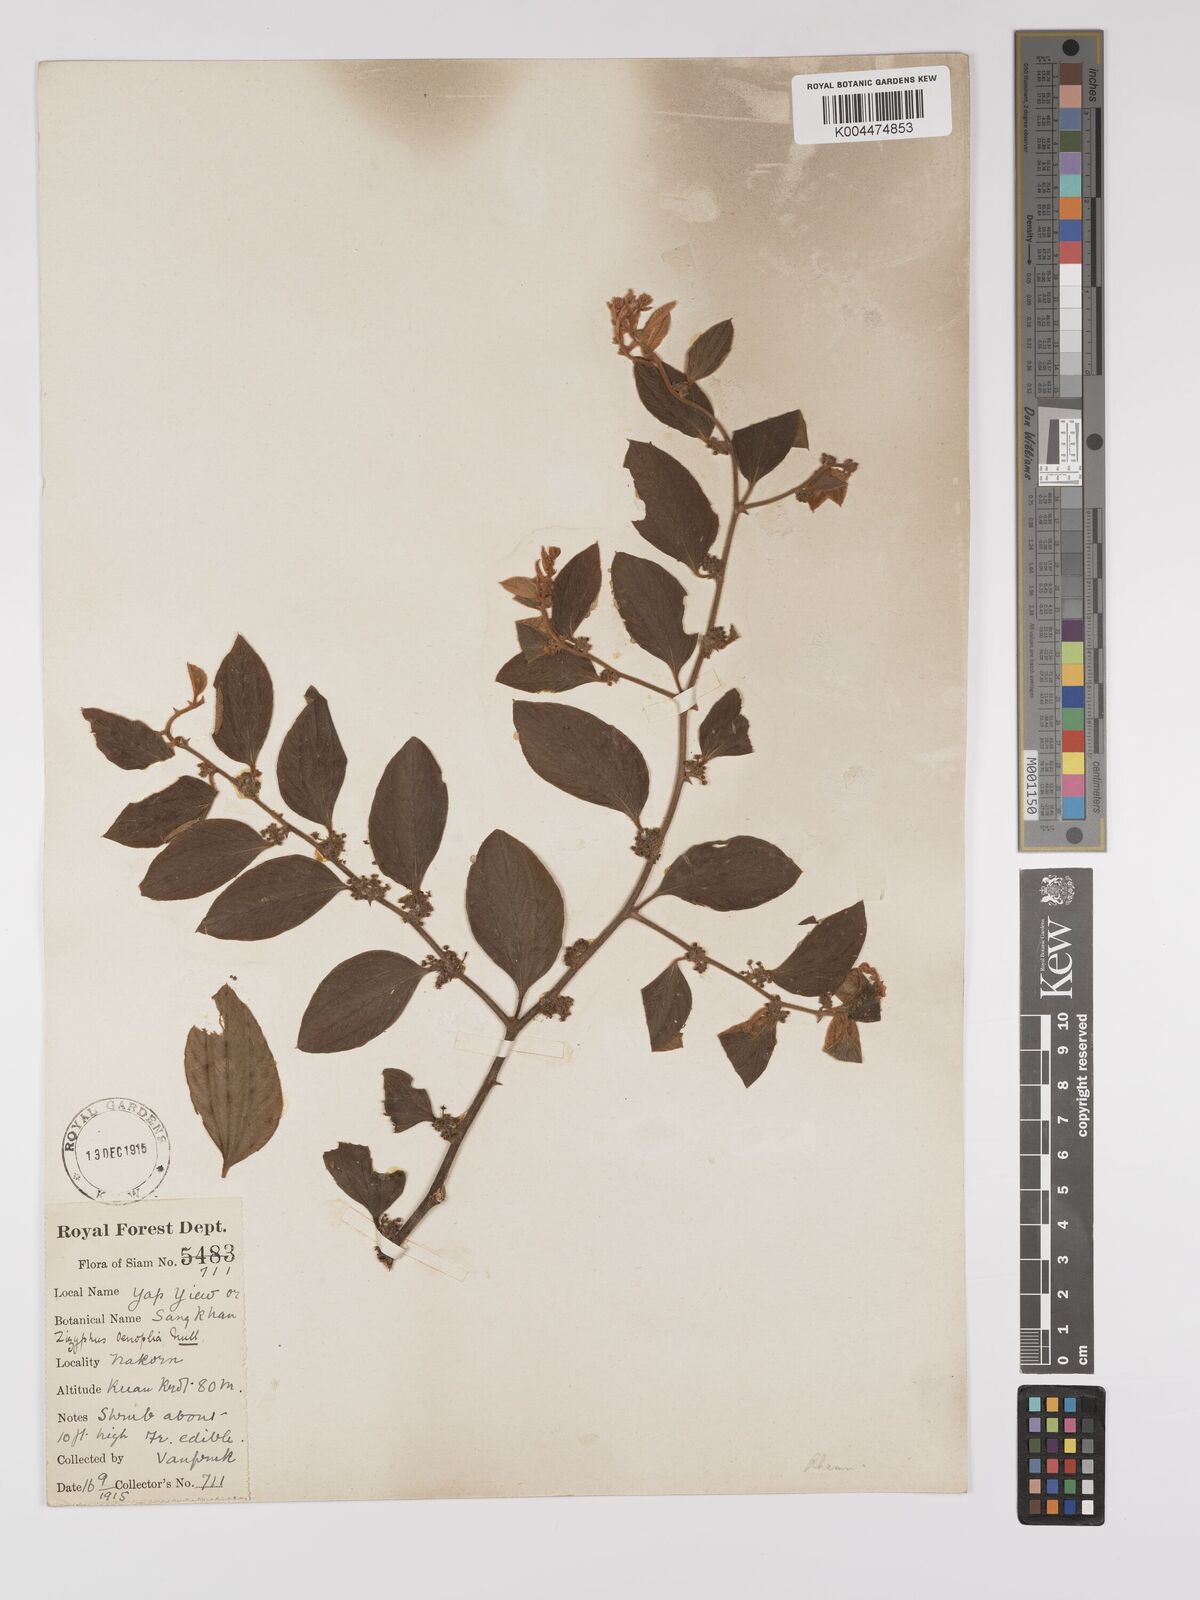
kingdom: Plantae
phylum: Tracheophyta
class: Magnoliopsida
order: Rosales
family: Rhamnaceae
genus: Ziziphus
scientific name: Ziziphus oenopolia
